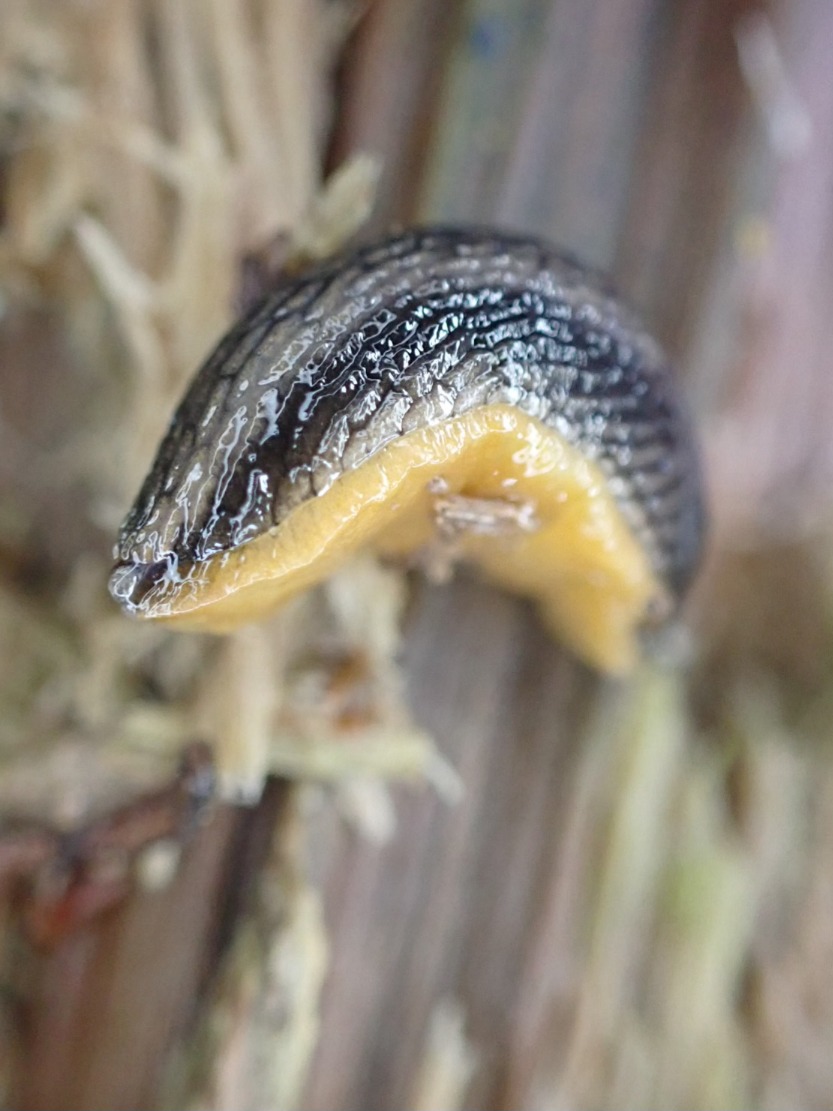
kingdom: Animalia
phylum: Mollusca
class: Gastropoda
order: Stylommatophora
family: Arionidae
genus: Arion
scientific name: Arion distinctus
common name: Sortsidesnegl
